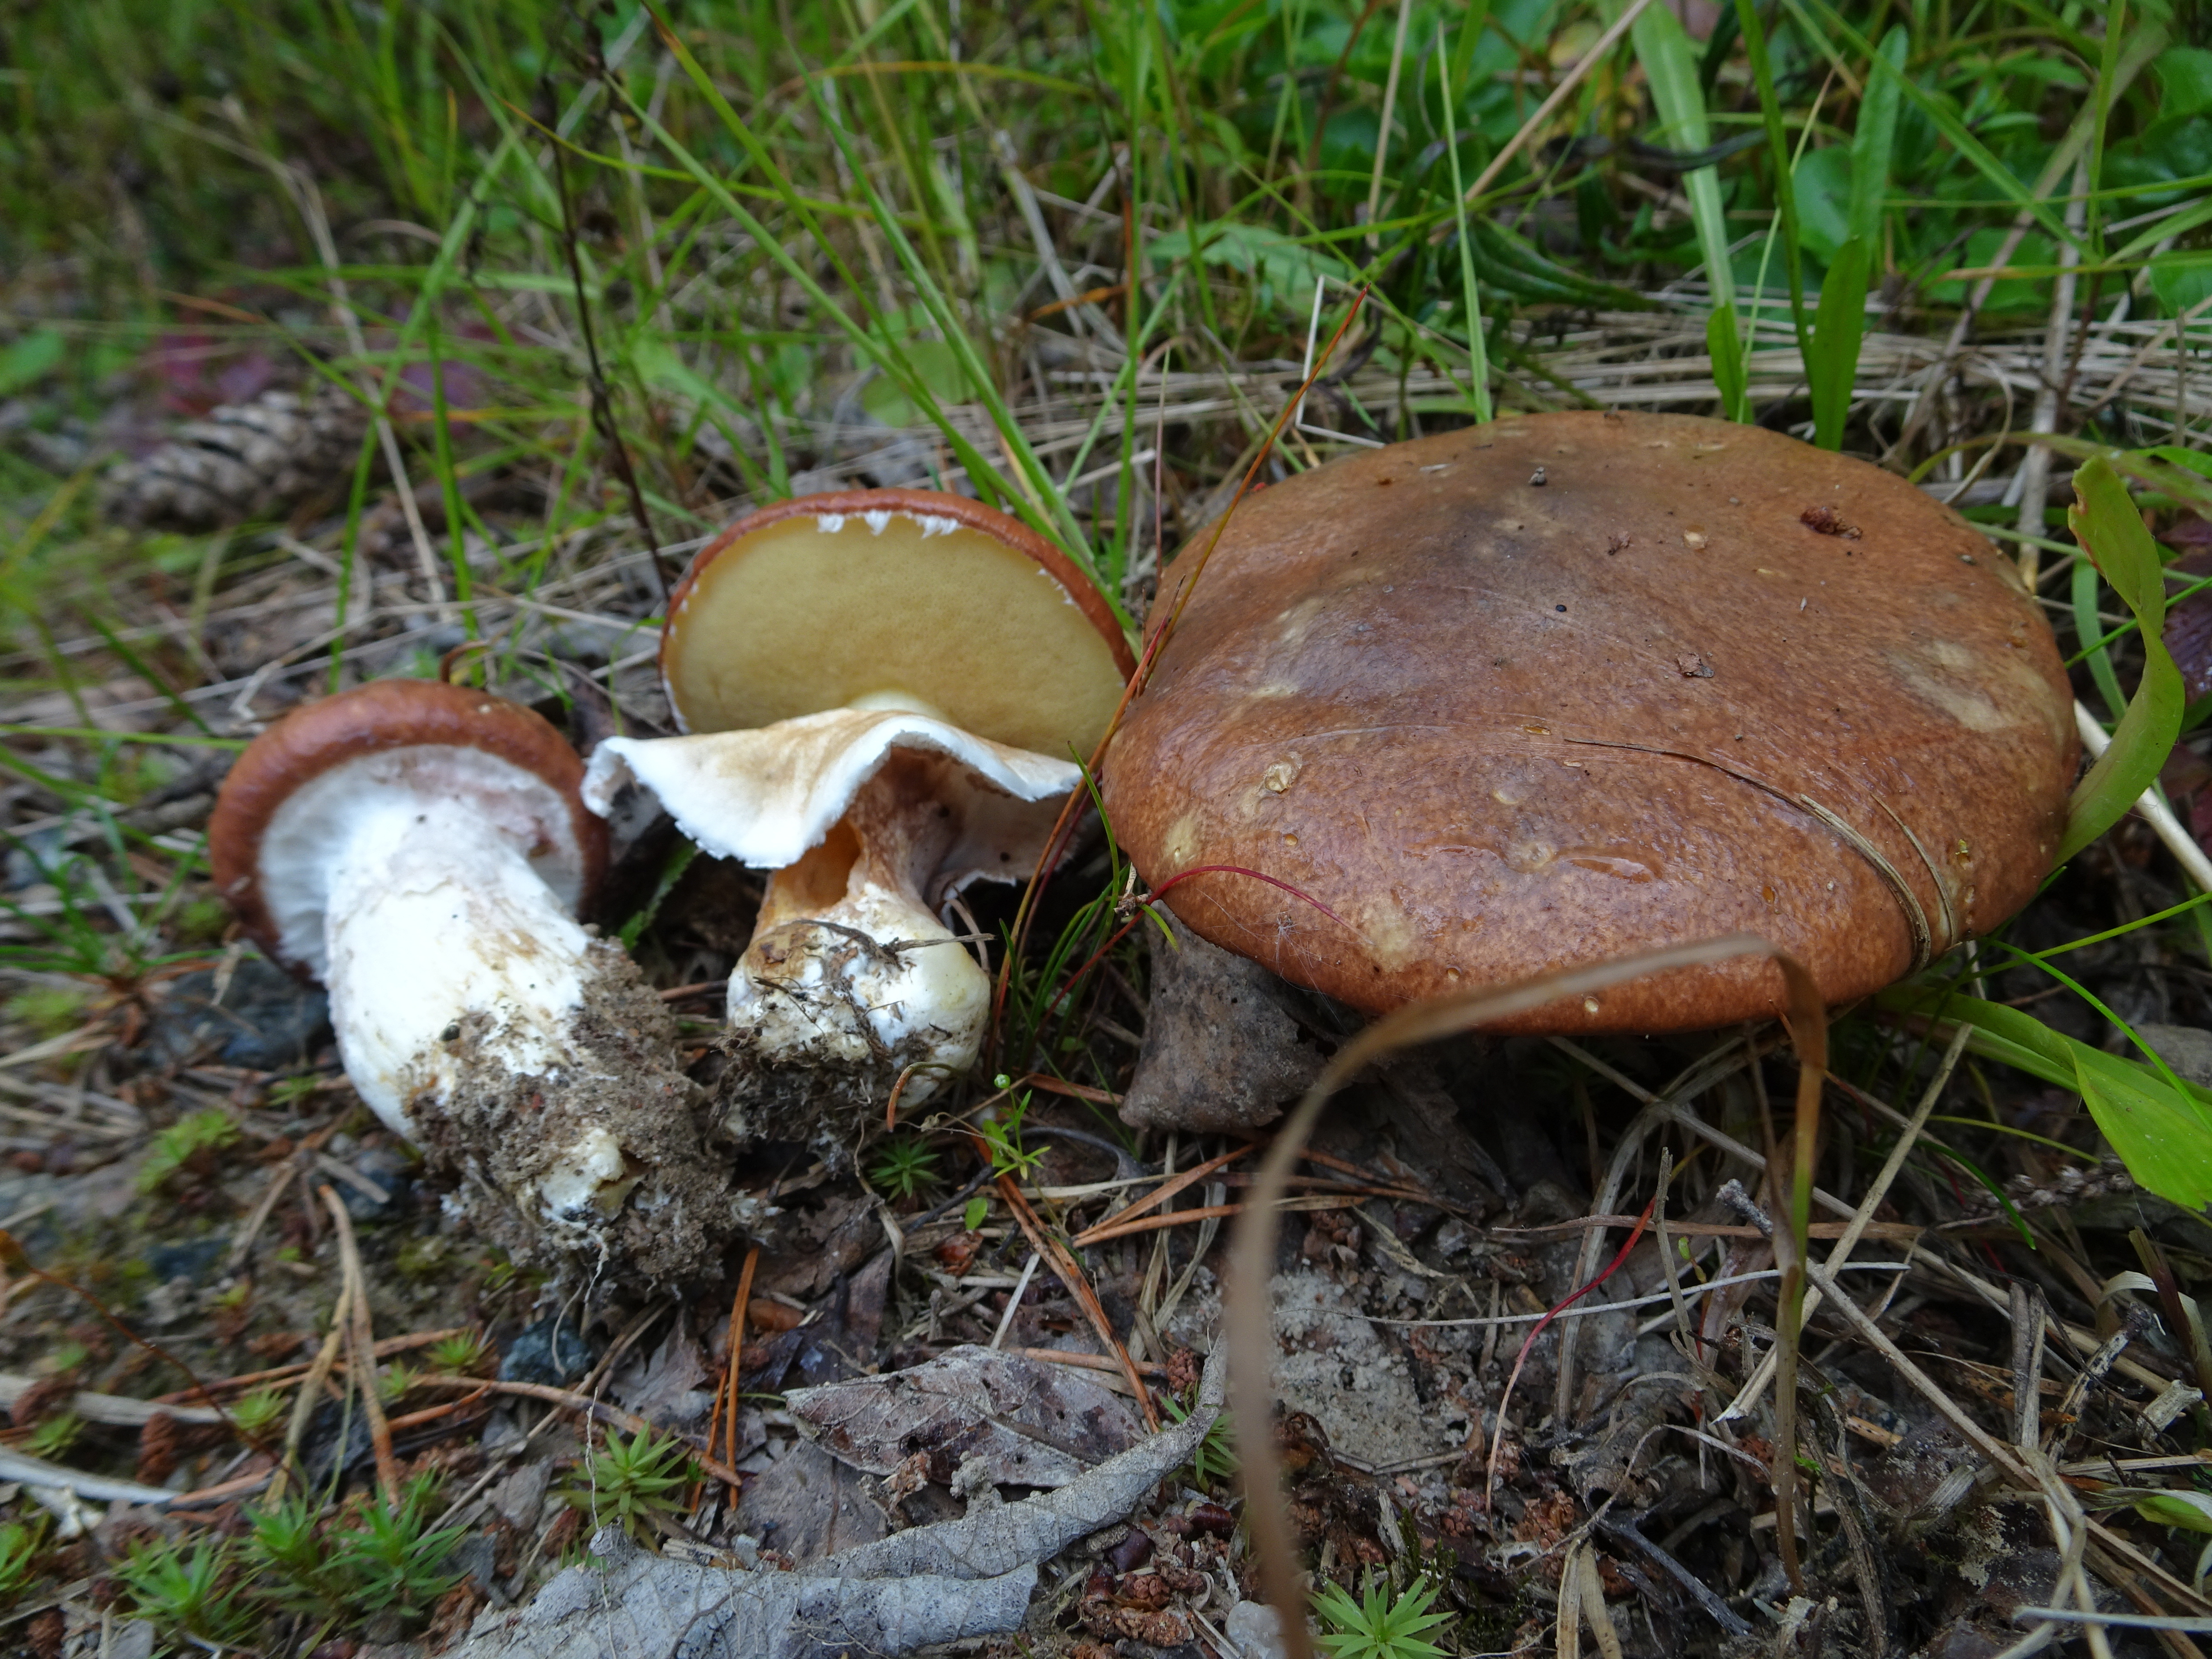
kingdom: Fungi
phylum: Basidiomycota
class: Agaricomycetes
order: Boletales
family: Suillaceae
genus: Suillus
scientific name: Suillus luteus
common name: Slippery jack
